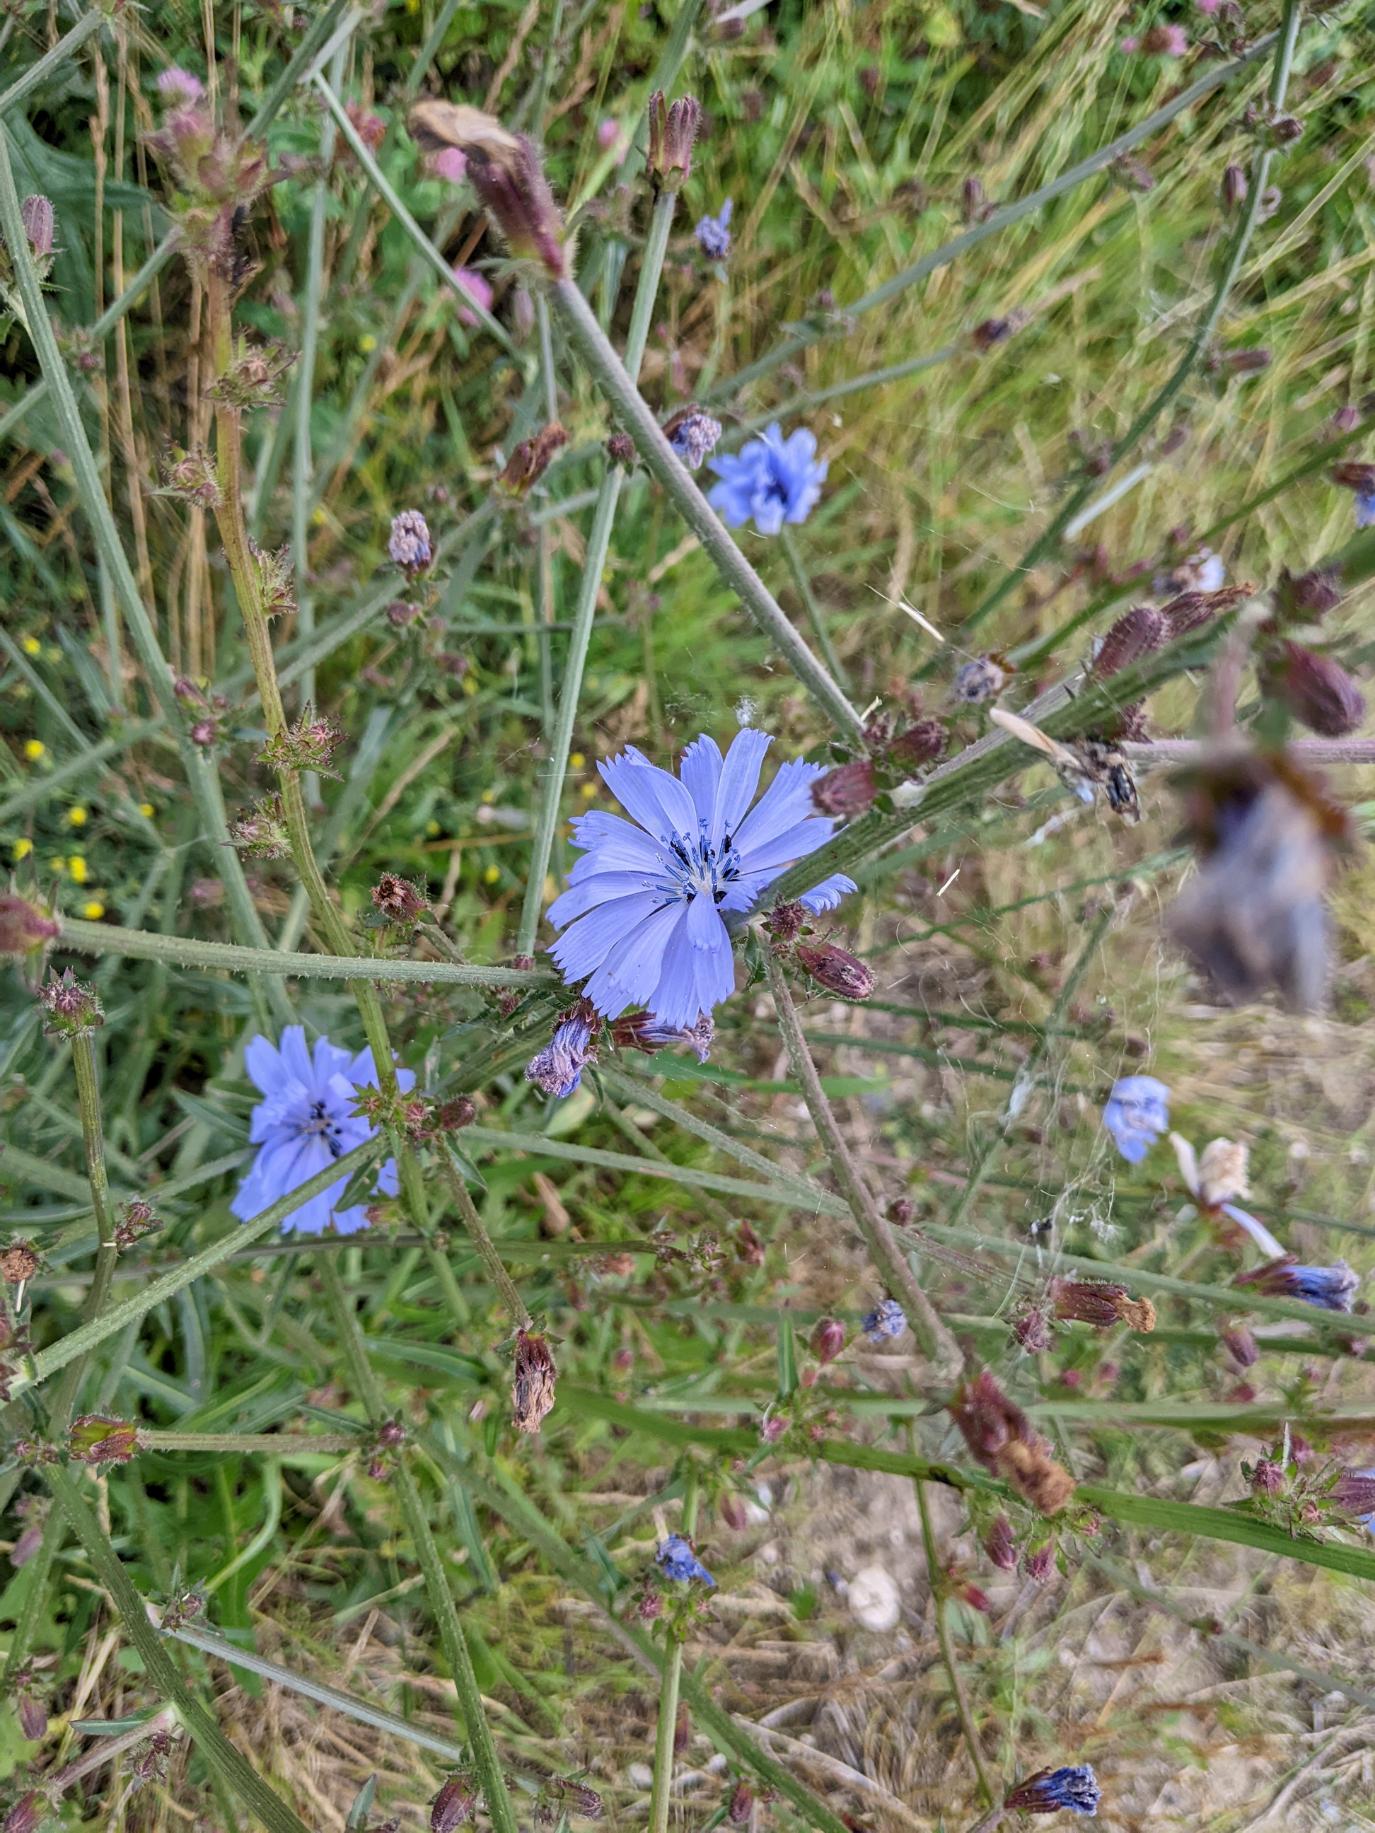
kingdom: Plantae
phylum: Tracheophyta
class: Magnoliopsida
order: Asterales
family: Asteraceae
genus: Cichorium
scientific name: Cichorium intybus
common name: Cikorie
